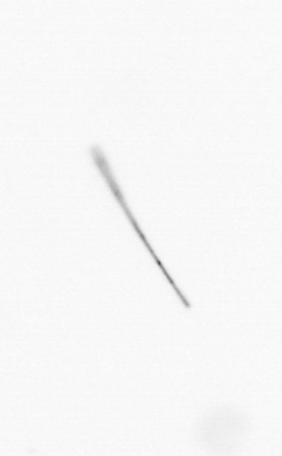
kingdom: Chromista
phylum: Ochrophyta
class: Bacillariophyceae
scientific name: Bacillariophyceae
